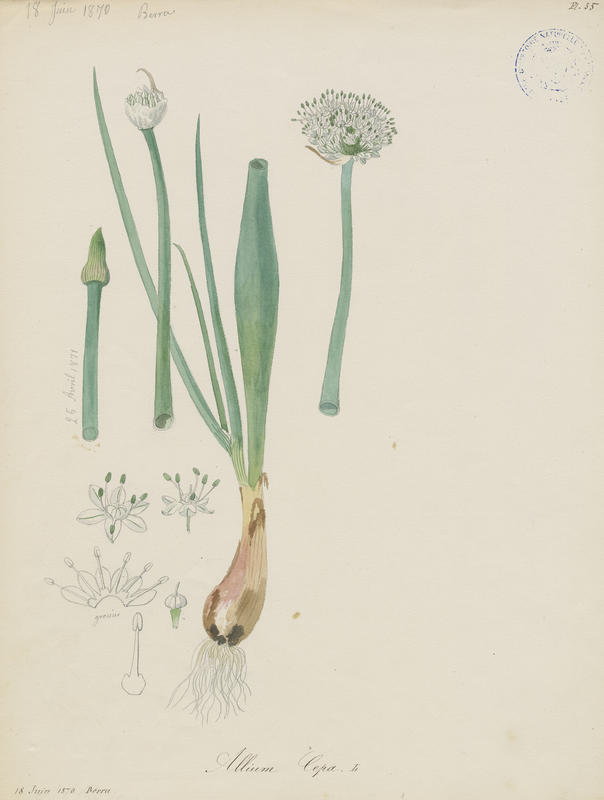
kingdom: Plantae
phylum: Tracheophyta
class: Liliopsida
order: Asparagales
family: Amaryllidaceae
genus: Allium
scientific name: Allium cepa
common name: Onion
